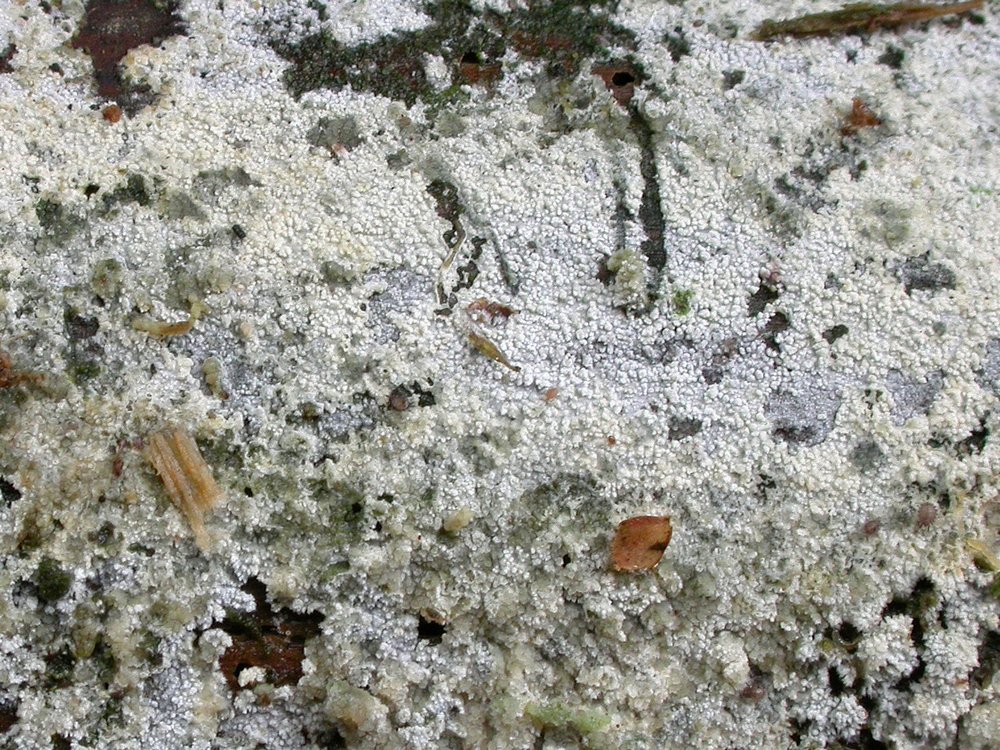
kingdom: Fungi
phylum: Basidiomycota
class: Agaricomycetes
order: Hymenochaetales
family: Schizoporaceae
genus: Xylodon
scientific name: Xylodon brevisetus
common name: tætvortet tandsvamp
